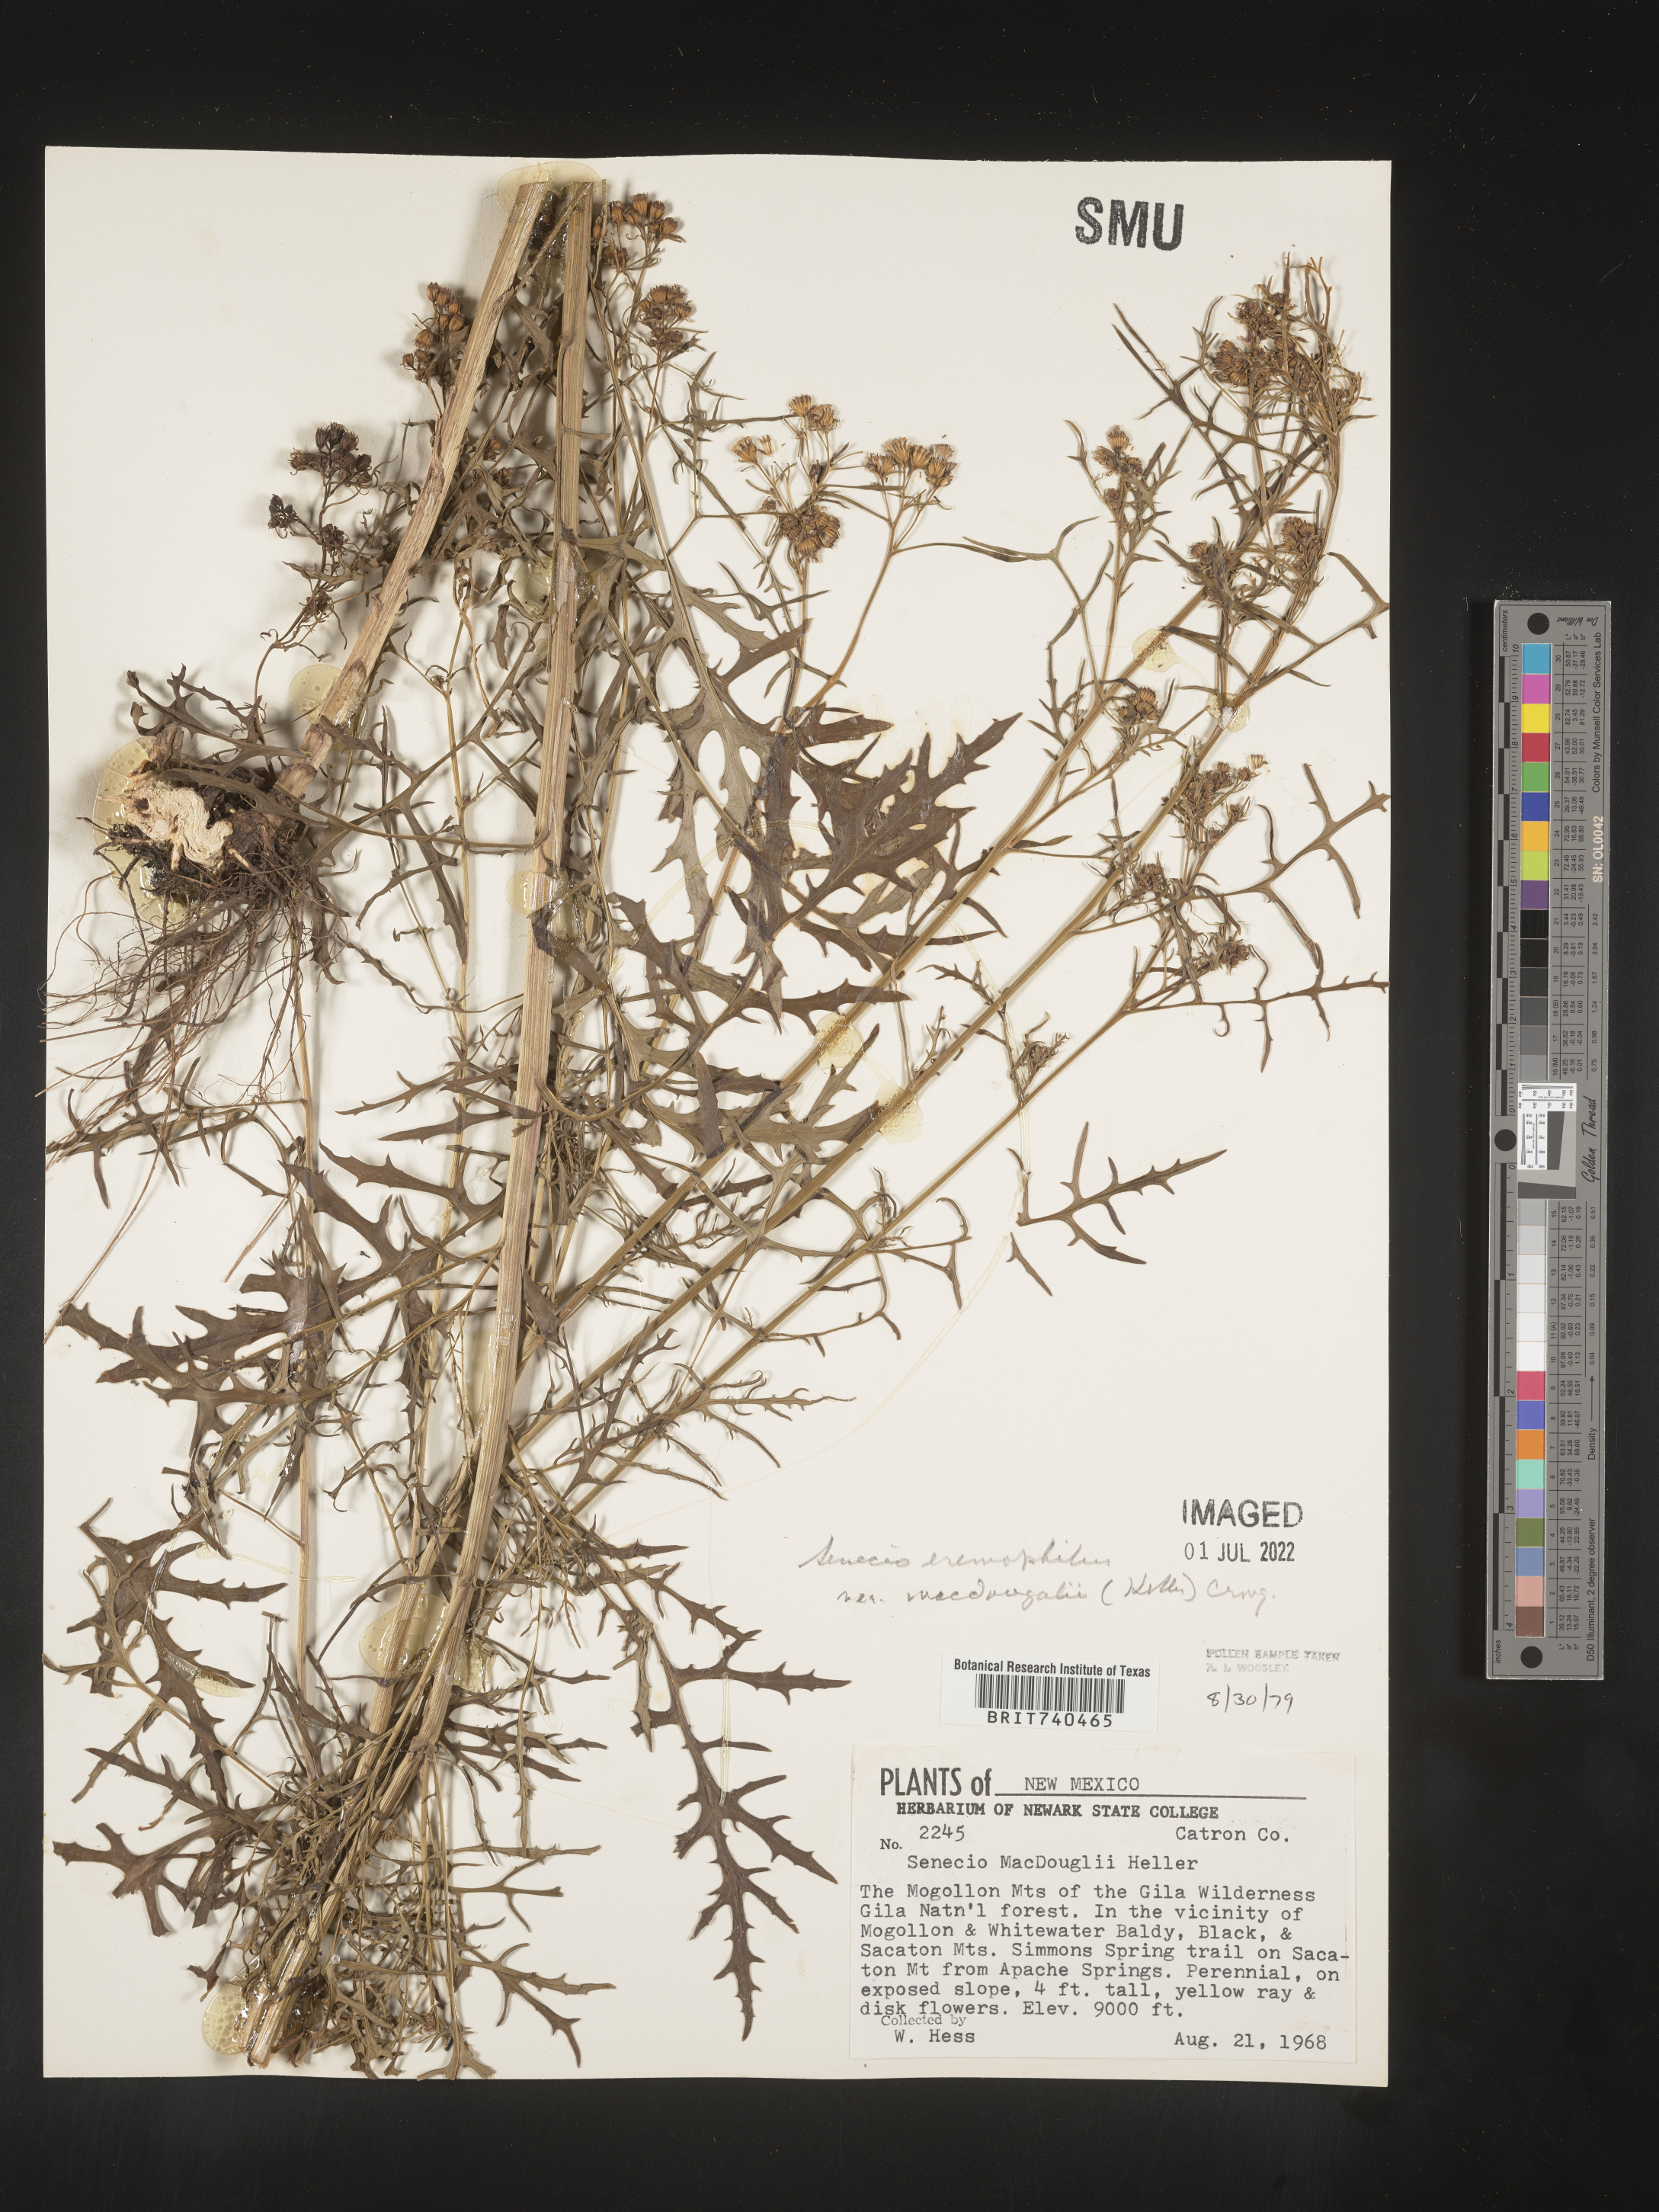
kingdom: Plantae
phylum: Tracheophyta
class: Magnoliopsida
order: Asterales
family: Asteraceae
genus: Senecio
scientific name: Senecio eremophilus
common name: Desert ragwort
